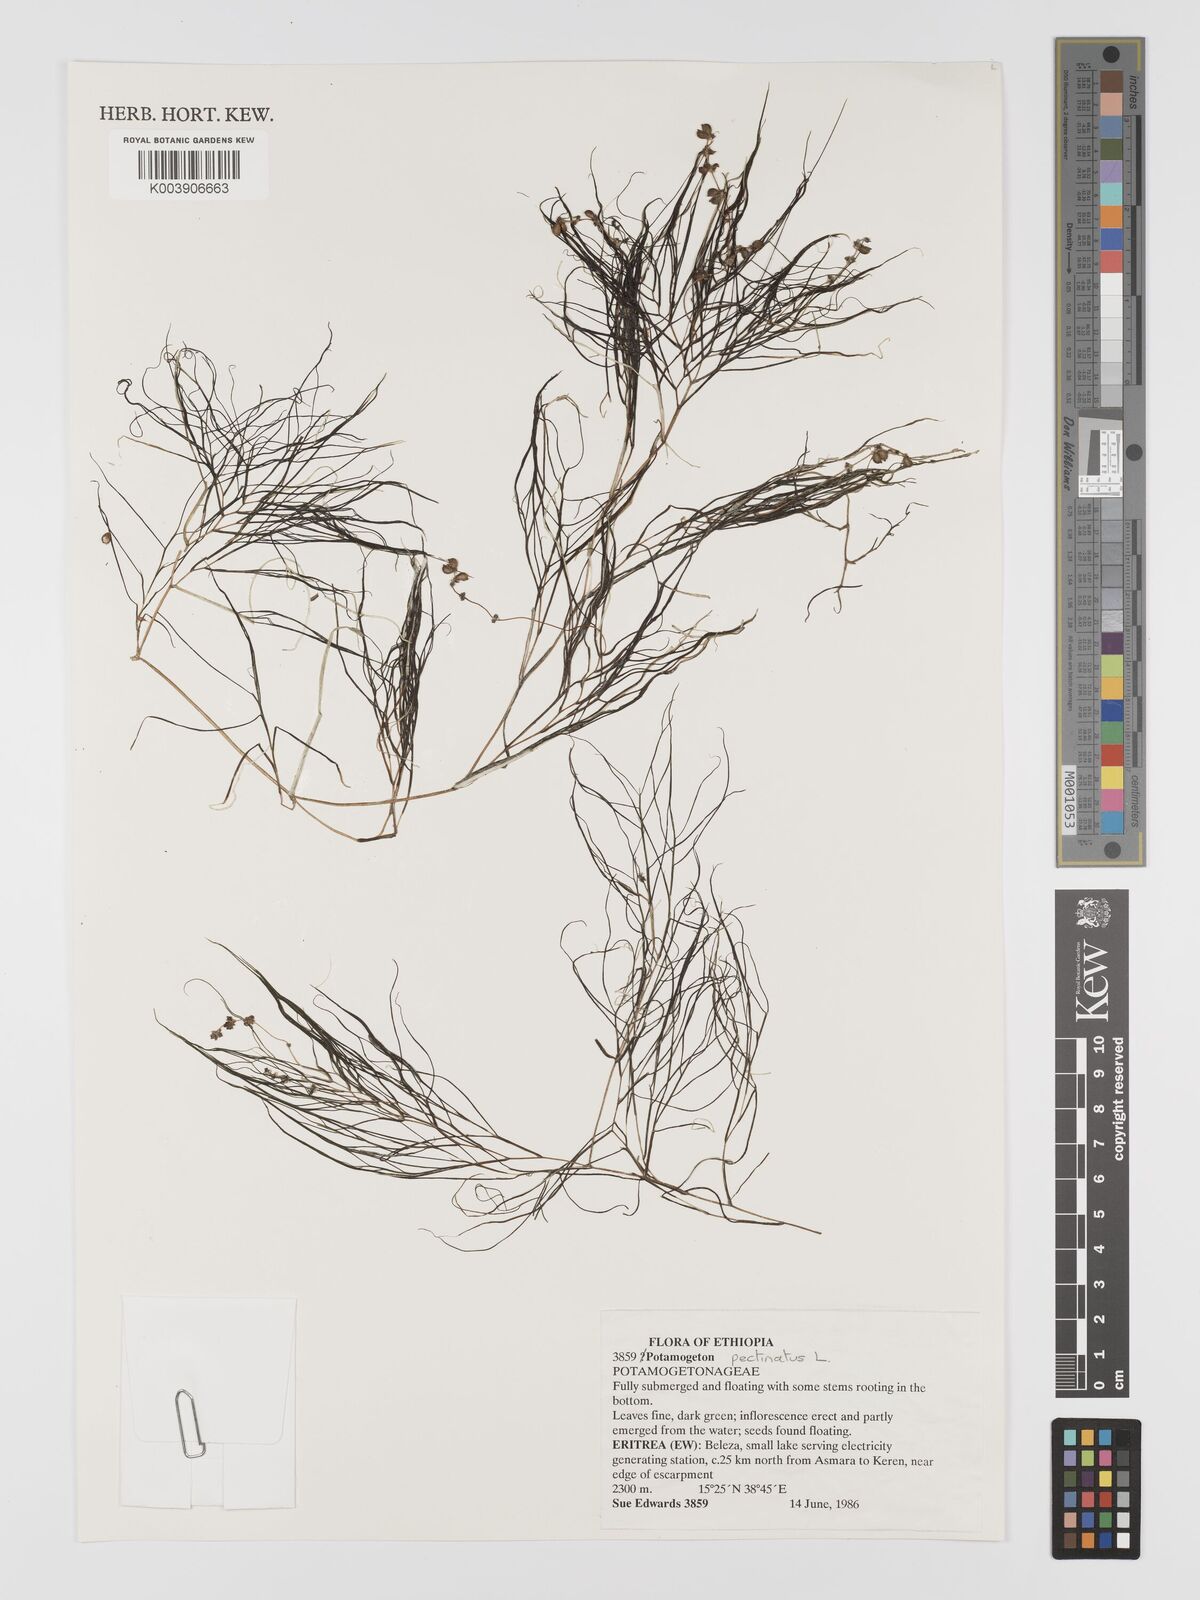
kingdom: Plantae
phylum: Tracheophyta
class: Liliopsida
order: Alismatales
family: Potamogetonaceae
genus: Stuckenia
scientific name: Stuckenia pectinata
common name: Sago pondweed
